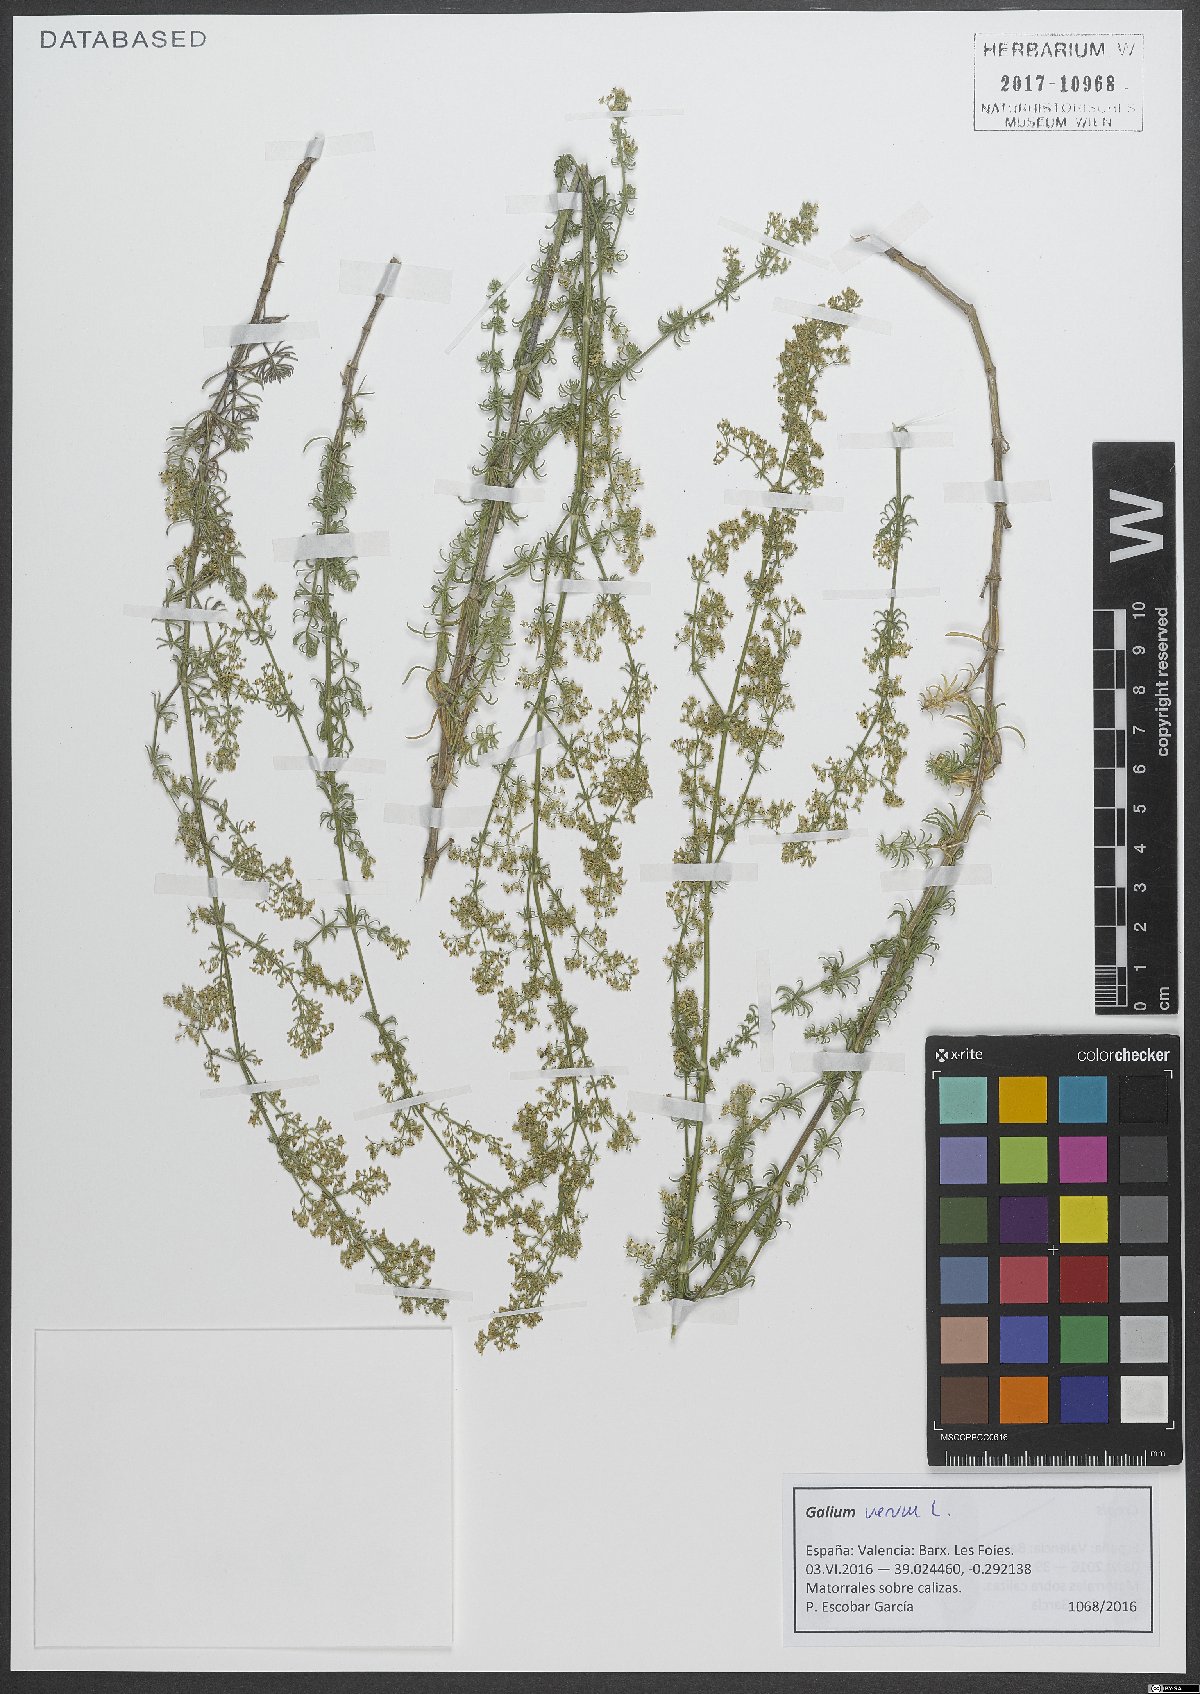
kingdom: Plantae
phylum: Tracheophyta
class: Magnoliopsida
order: Gentianales
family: Rubiaceae
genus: Galium
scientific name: Galium verum
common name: Lady's bedstraw
